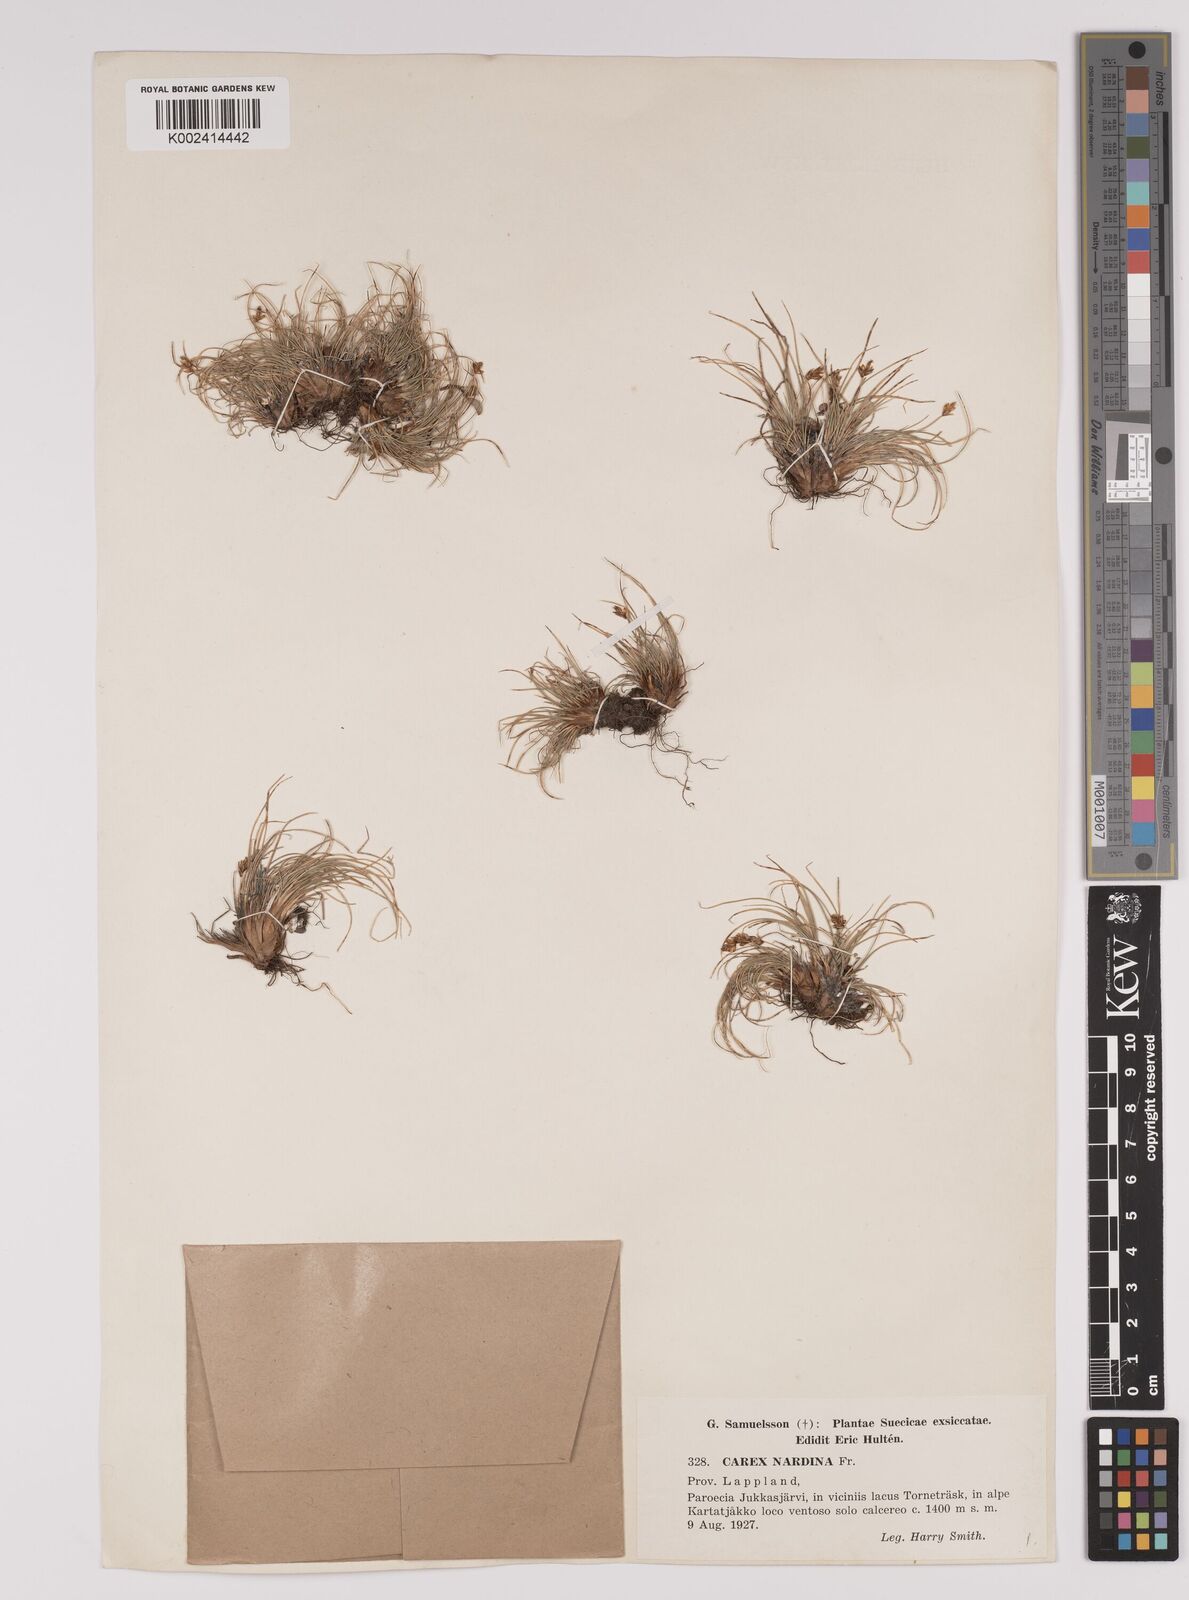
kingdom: Plantae
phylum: Tracheophyta
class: Liliopsida
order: Poales
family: Cyperaceae
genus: Carex
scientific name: Carex nardina
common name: Nard sedge
